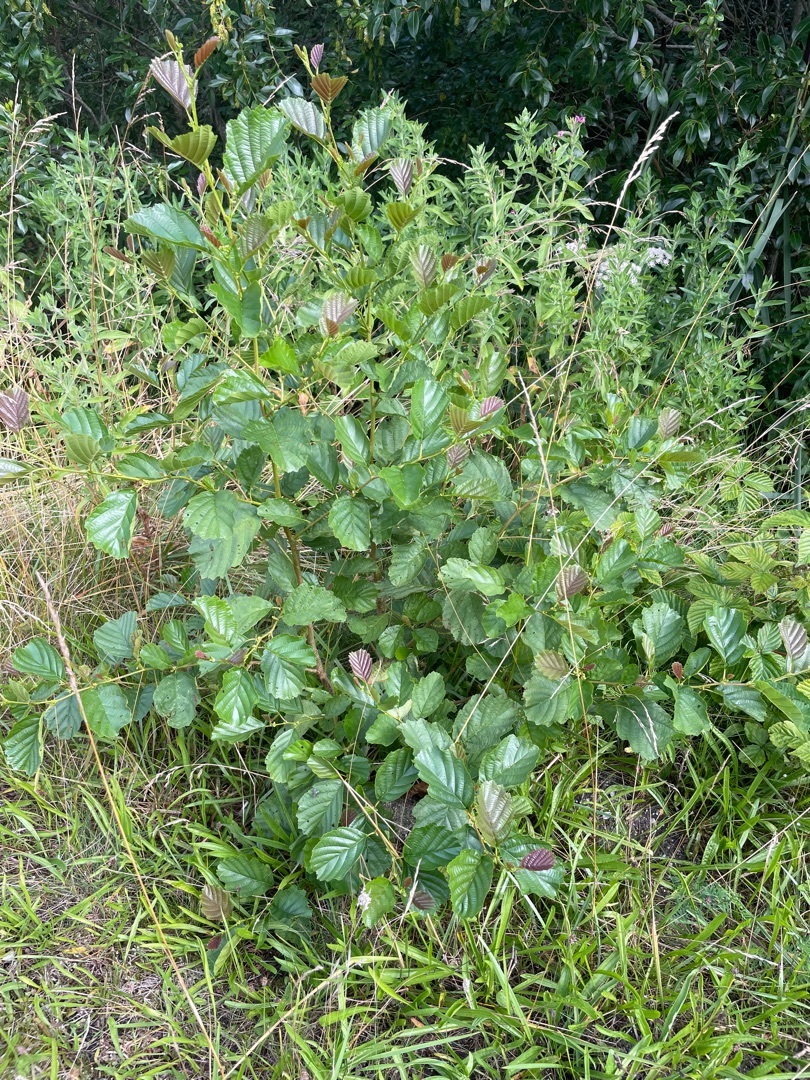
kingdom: Plantae
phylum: Tracheophyta
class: Magnoliopsida
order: Fagales
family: Betulaceae
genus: Alnus
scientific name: Alnus glutinosa
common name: Rød-el
